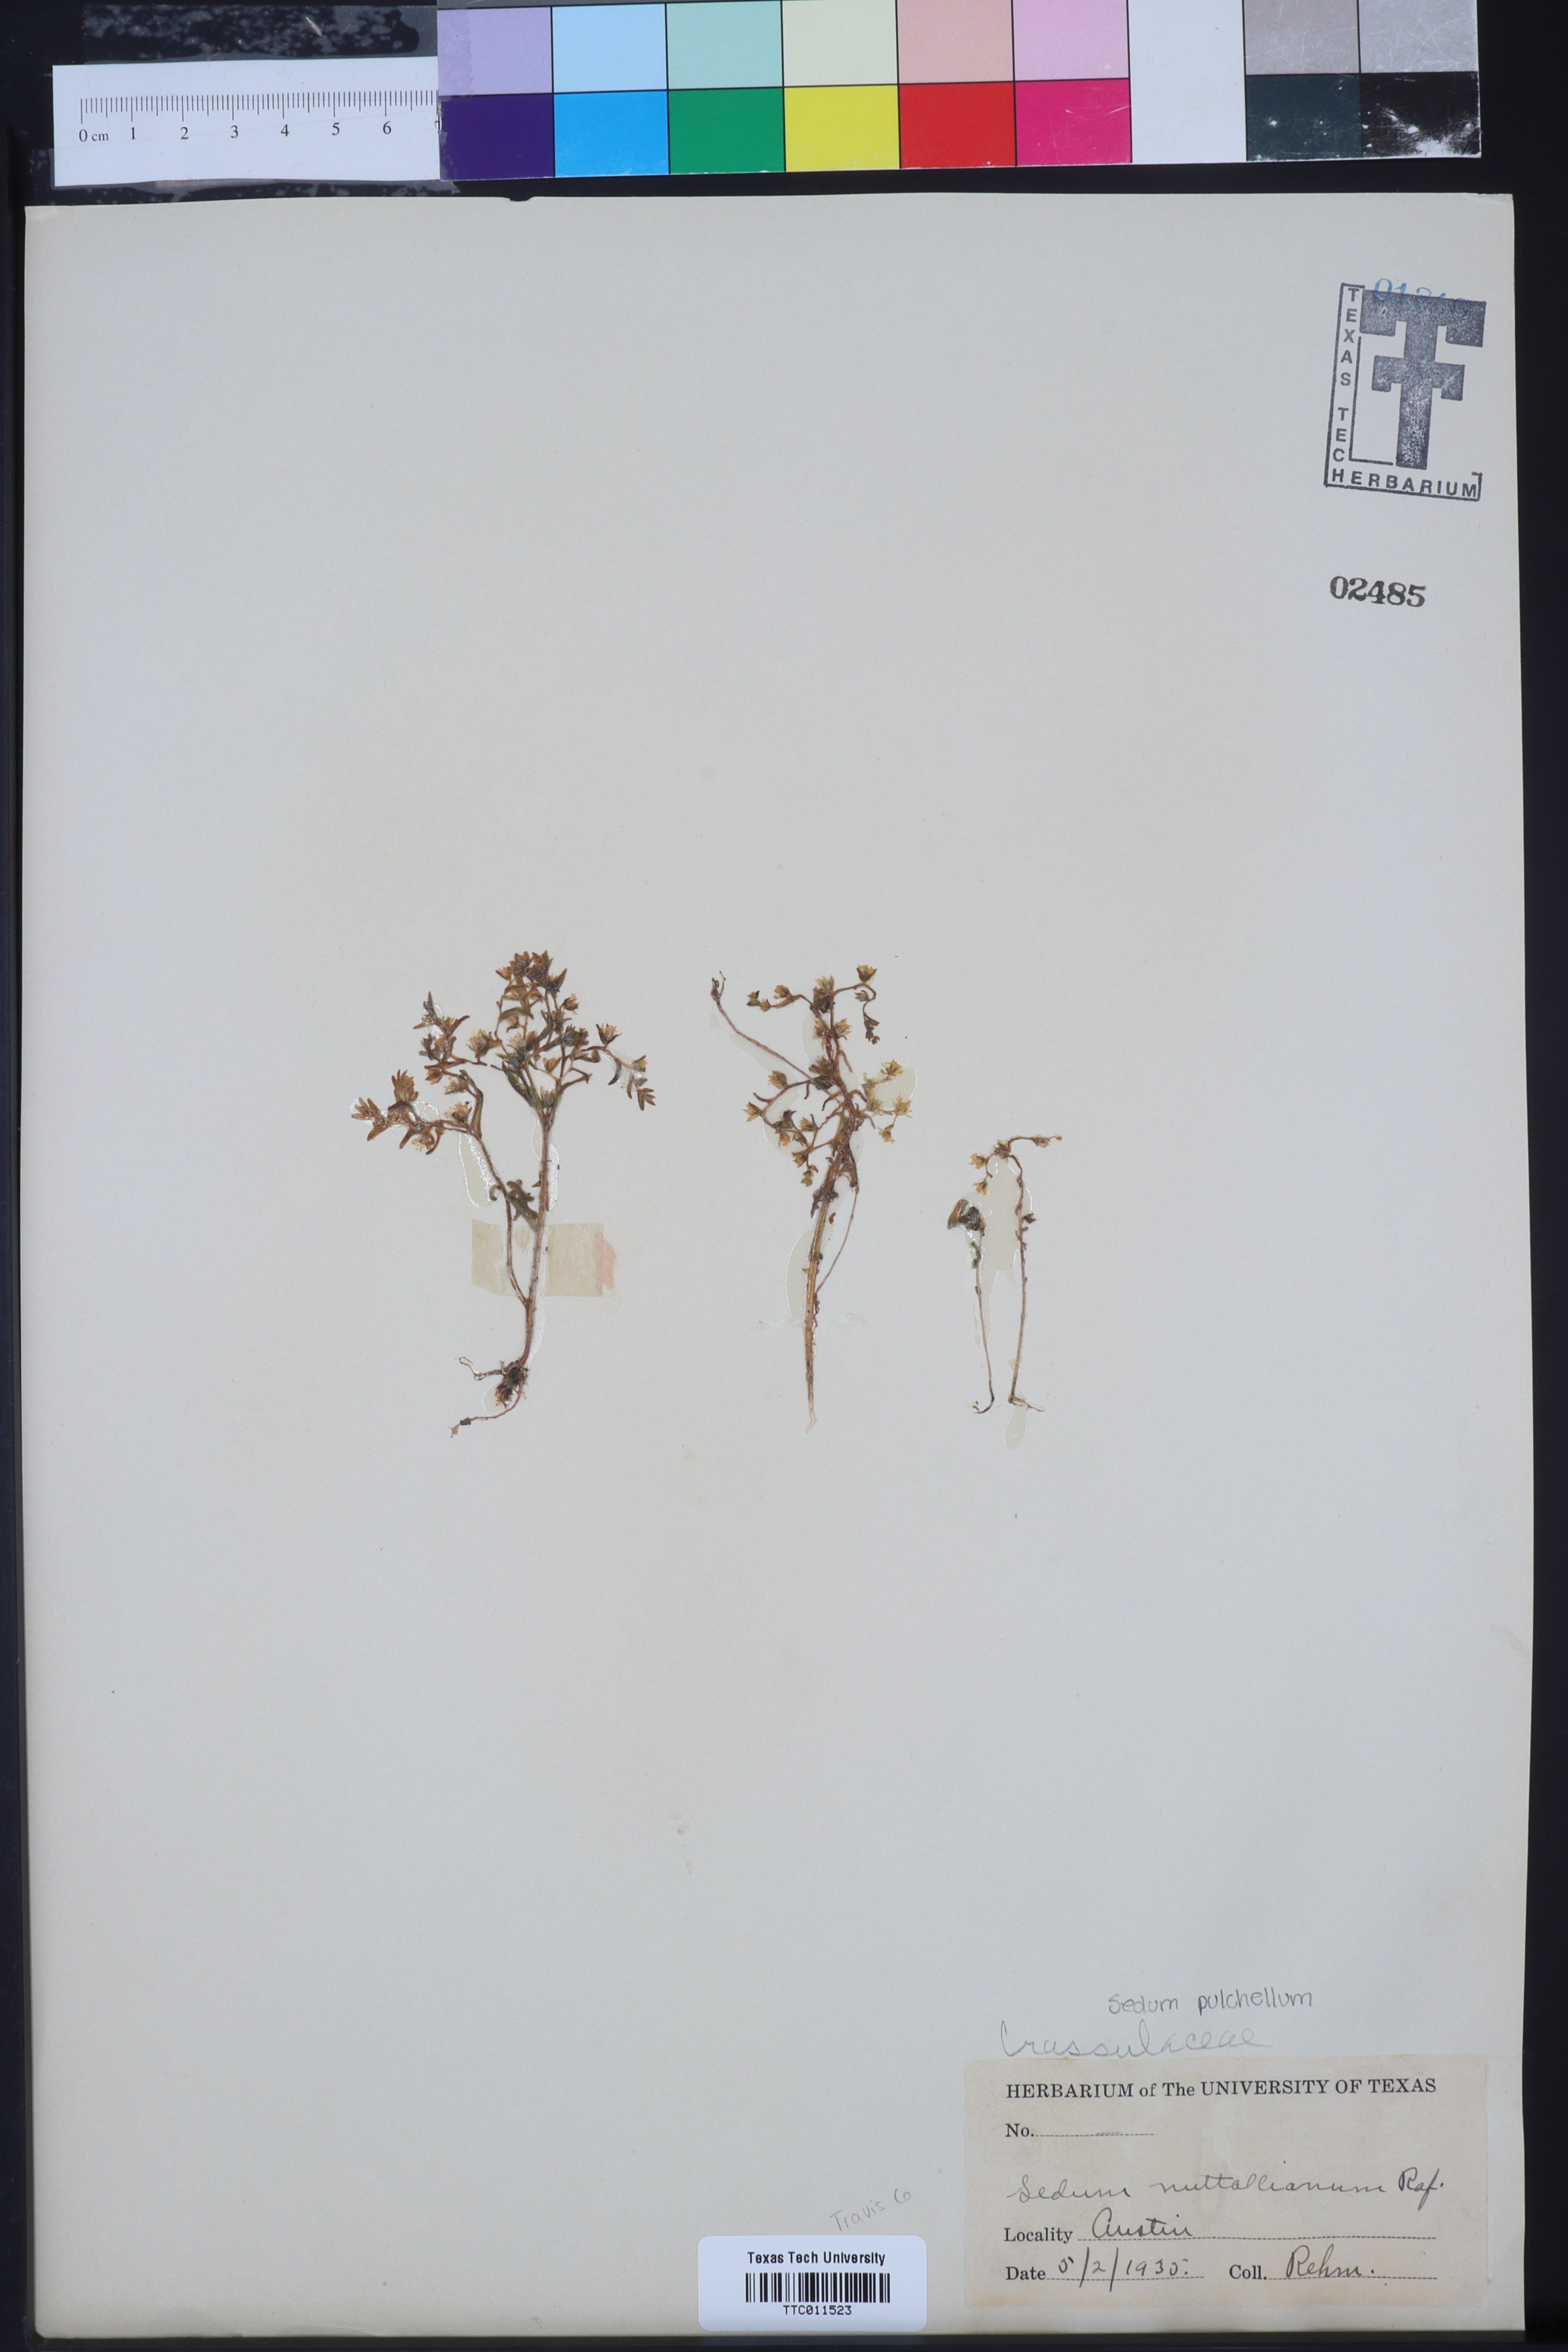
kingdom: Plantae
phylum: Tracheophyta
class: Magnoliopsida
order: Saxifragales
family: Crassulaceae
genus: Sedum
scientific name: Sedum nuttallii
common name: Yellow stonecrop
